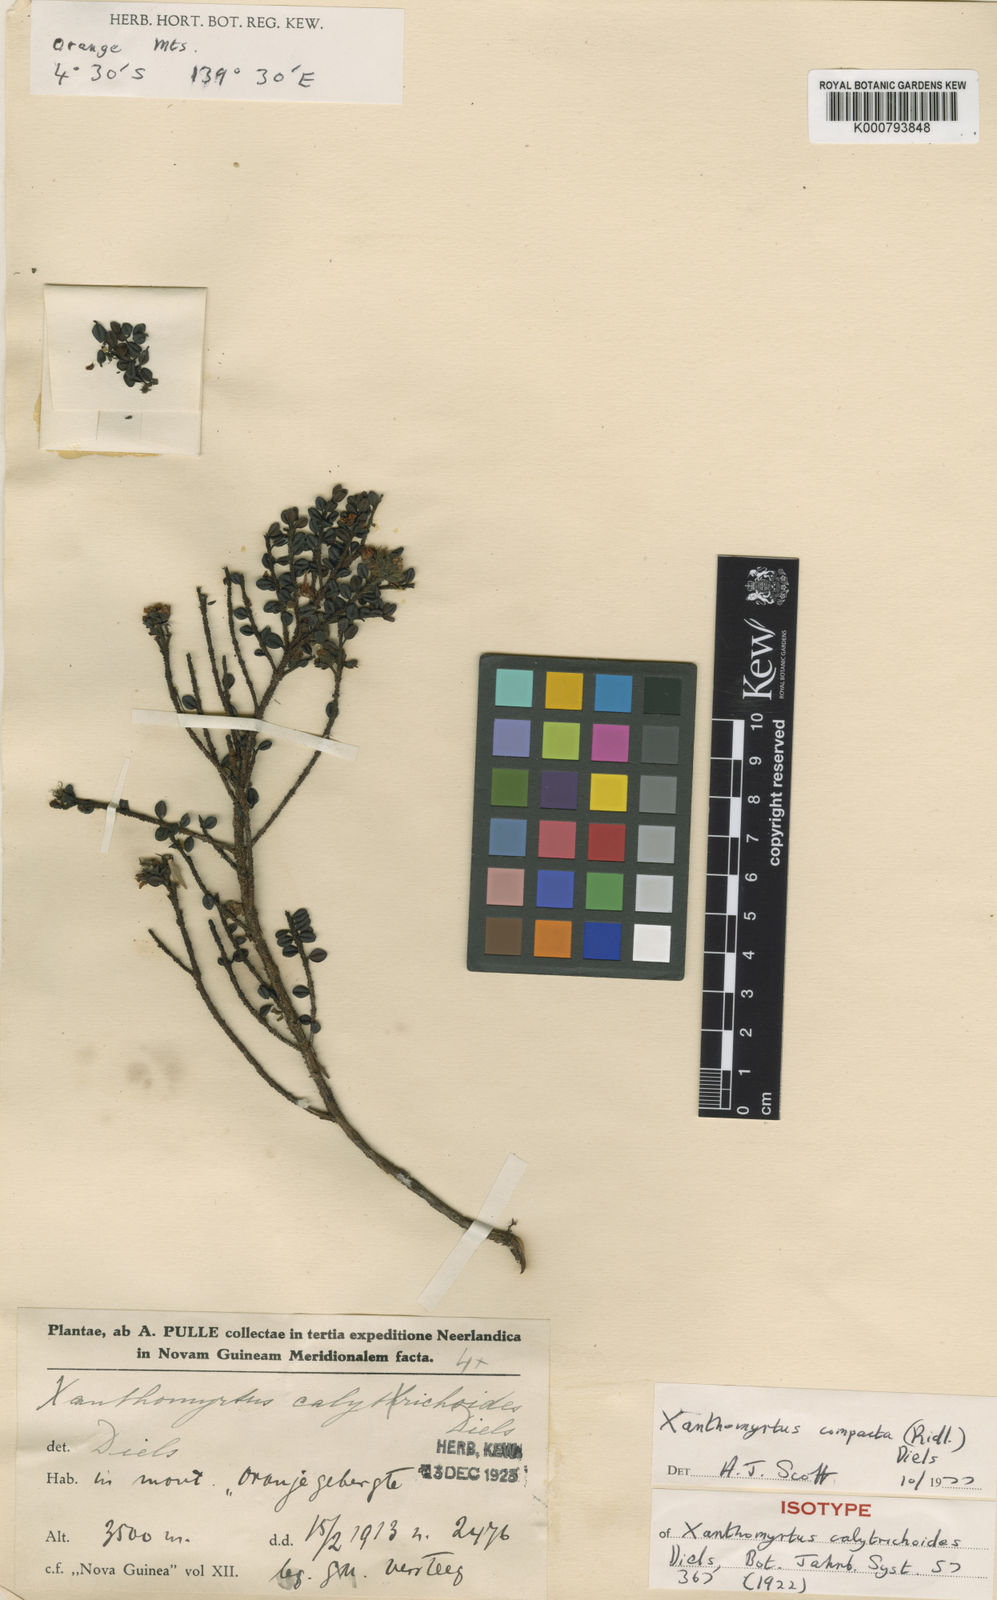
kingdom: Plantae
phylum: Tracheophyta
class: Magnoliopsida
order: Myrtales
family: Myrtaceae
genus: Xanthomyrtus
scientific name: Xanthomyrtus compacta
